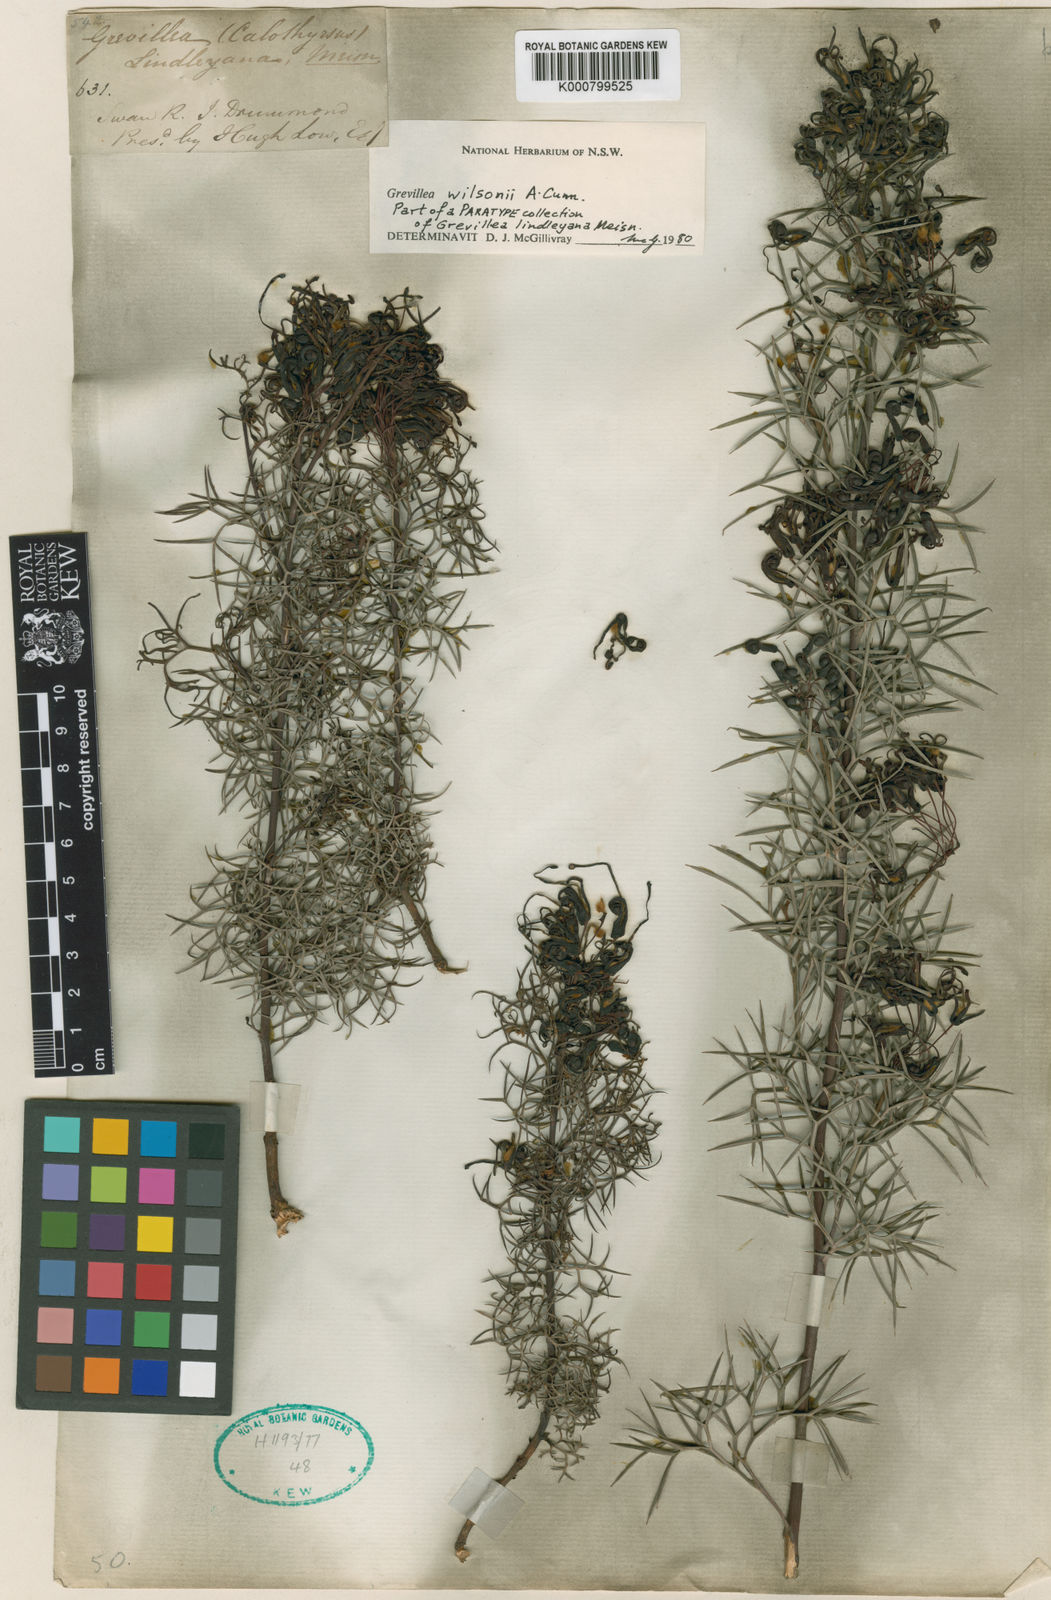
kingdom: Plantae
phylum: Tracheophyta
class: Magnoliopsida
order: Proteales
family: Proteaceae
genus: Grevillea
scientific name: Grevillea wilsonii
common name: Fire-wheel
